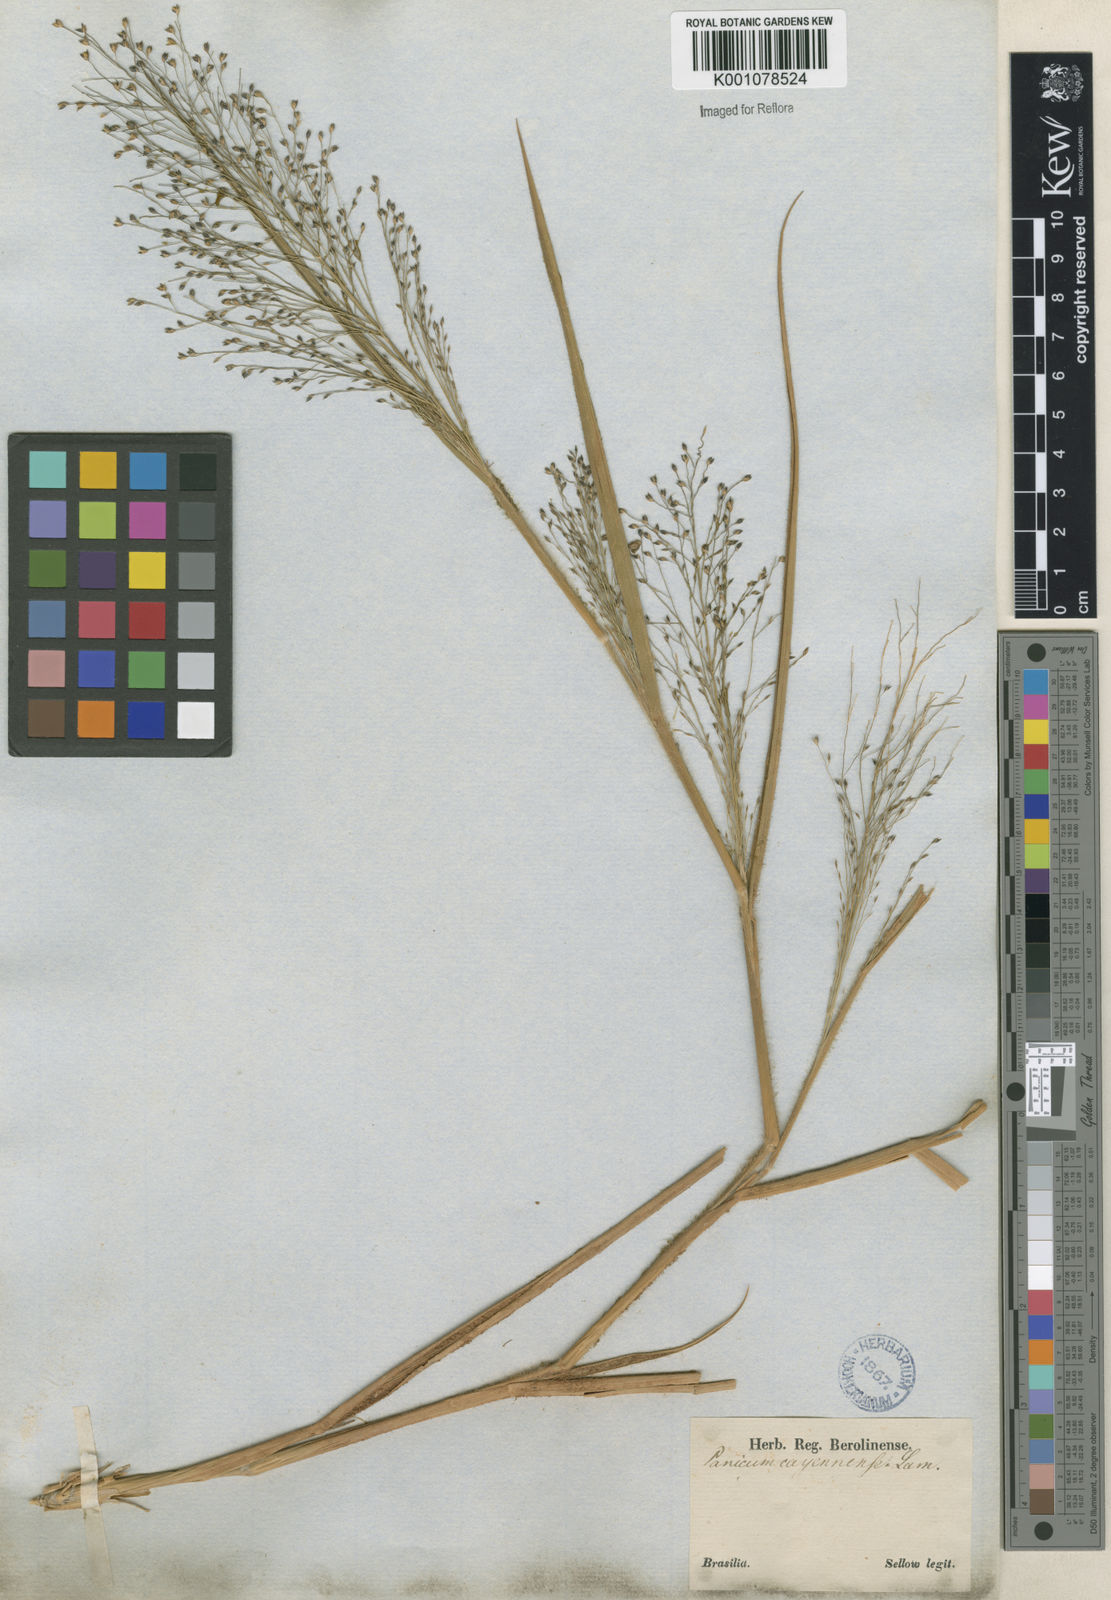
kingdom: Plantae
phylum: Tracheophyta
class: Liliopsida
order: Poales
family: Poaceae
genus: Panicum
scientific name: Panicum campestre
